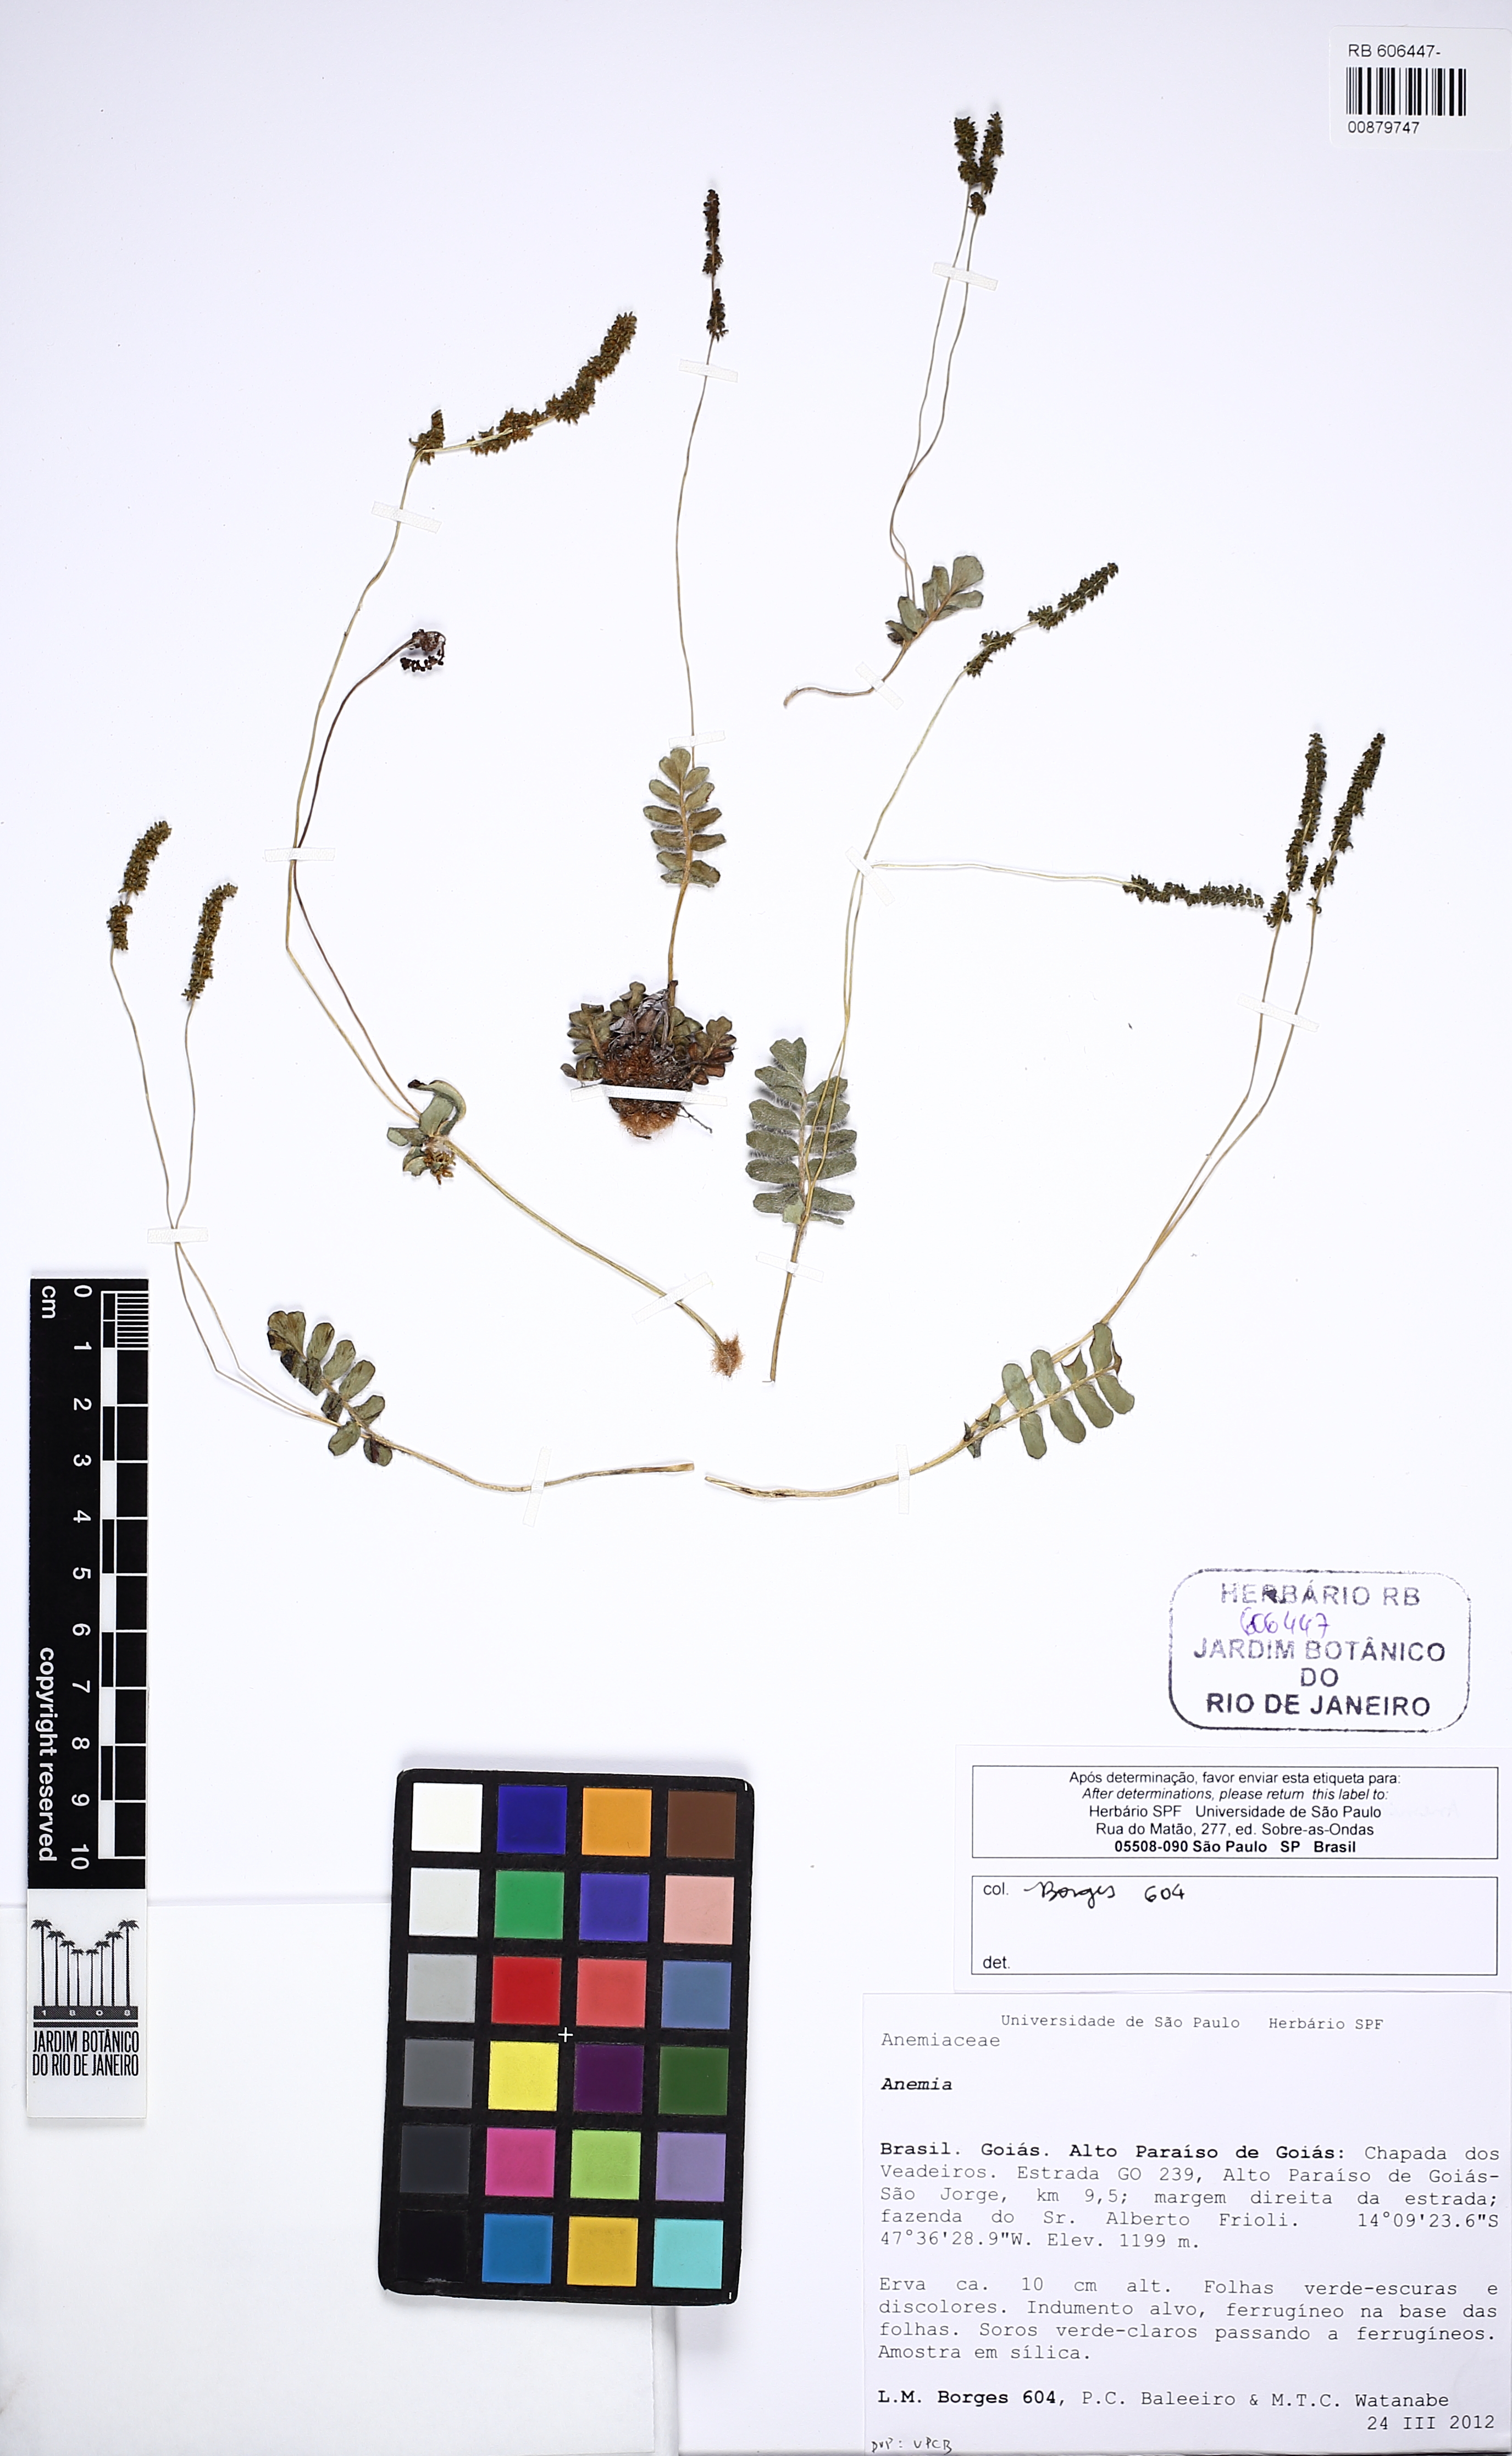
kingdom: Plantae
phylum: Tracheophyta
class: Polypodiopsida
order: Schizaeales
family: Anemiaceae
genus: Anemia
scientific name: Anemia oblongifolia
